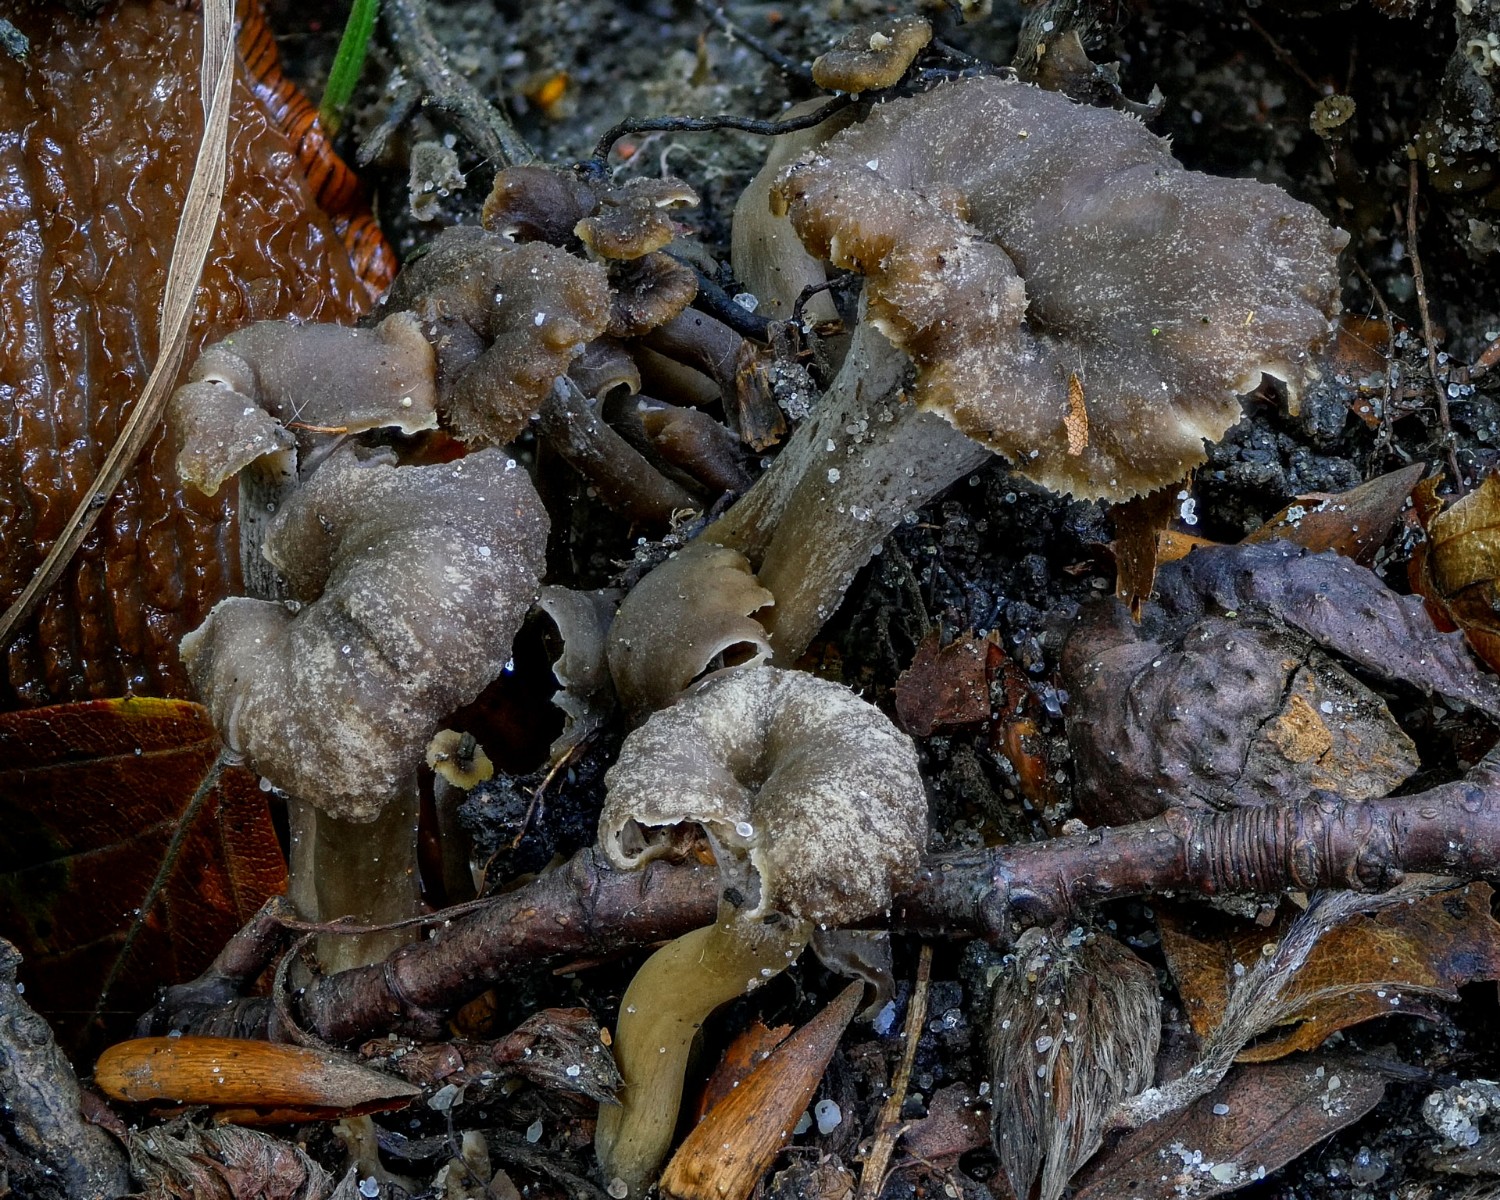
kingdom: Fungi
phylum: Basidiomycota
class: Agaricomycetes
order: Cantharellales
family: Hydnaceae
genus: Craterellus
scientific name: Craterellus undulatus
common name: liden kantarel
